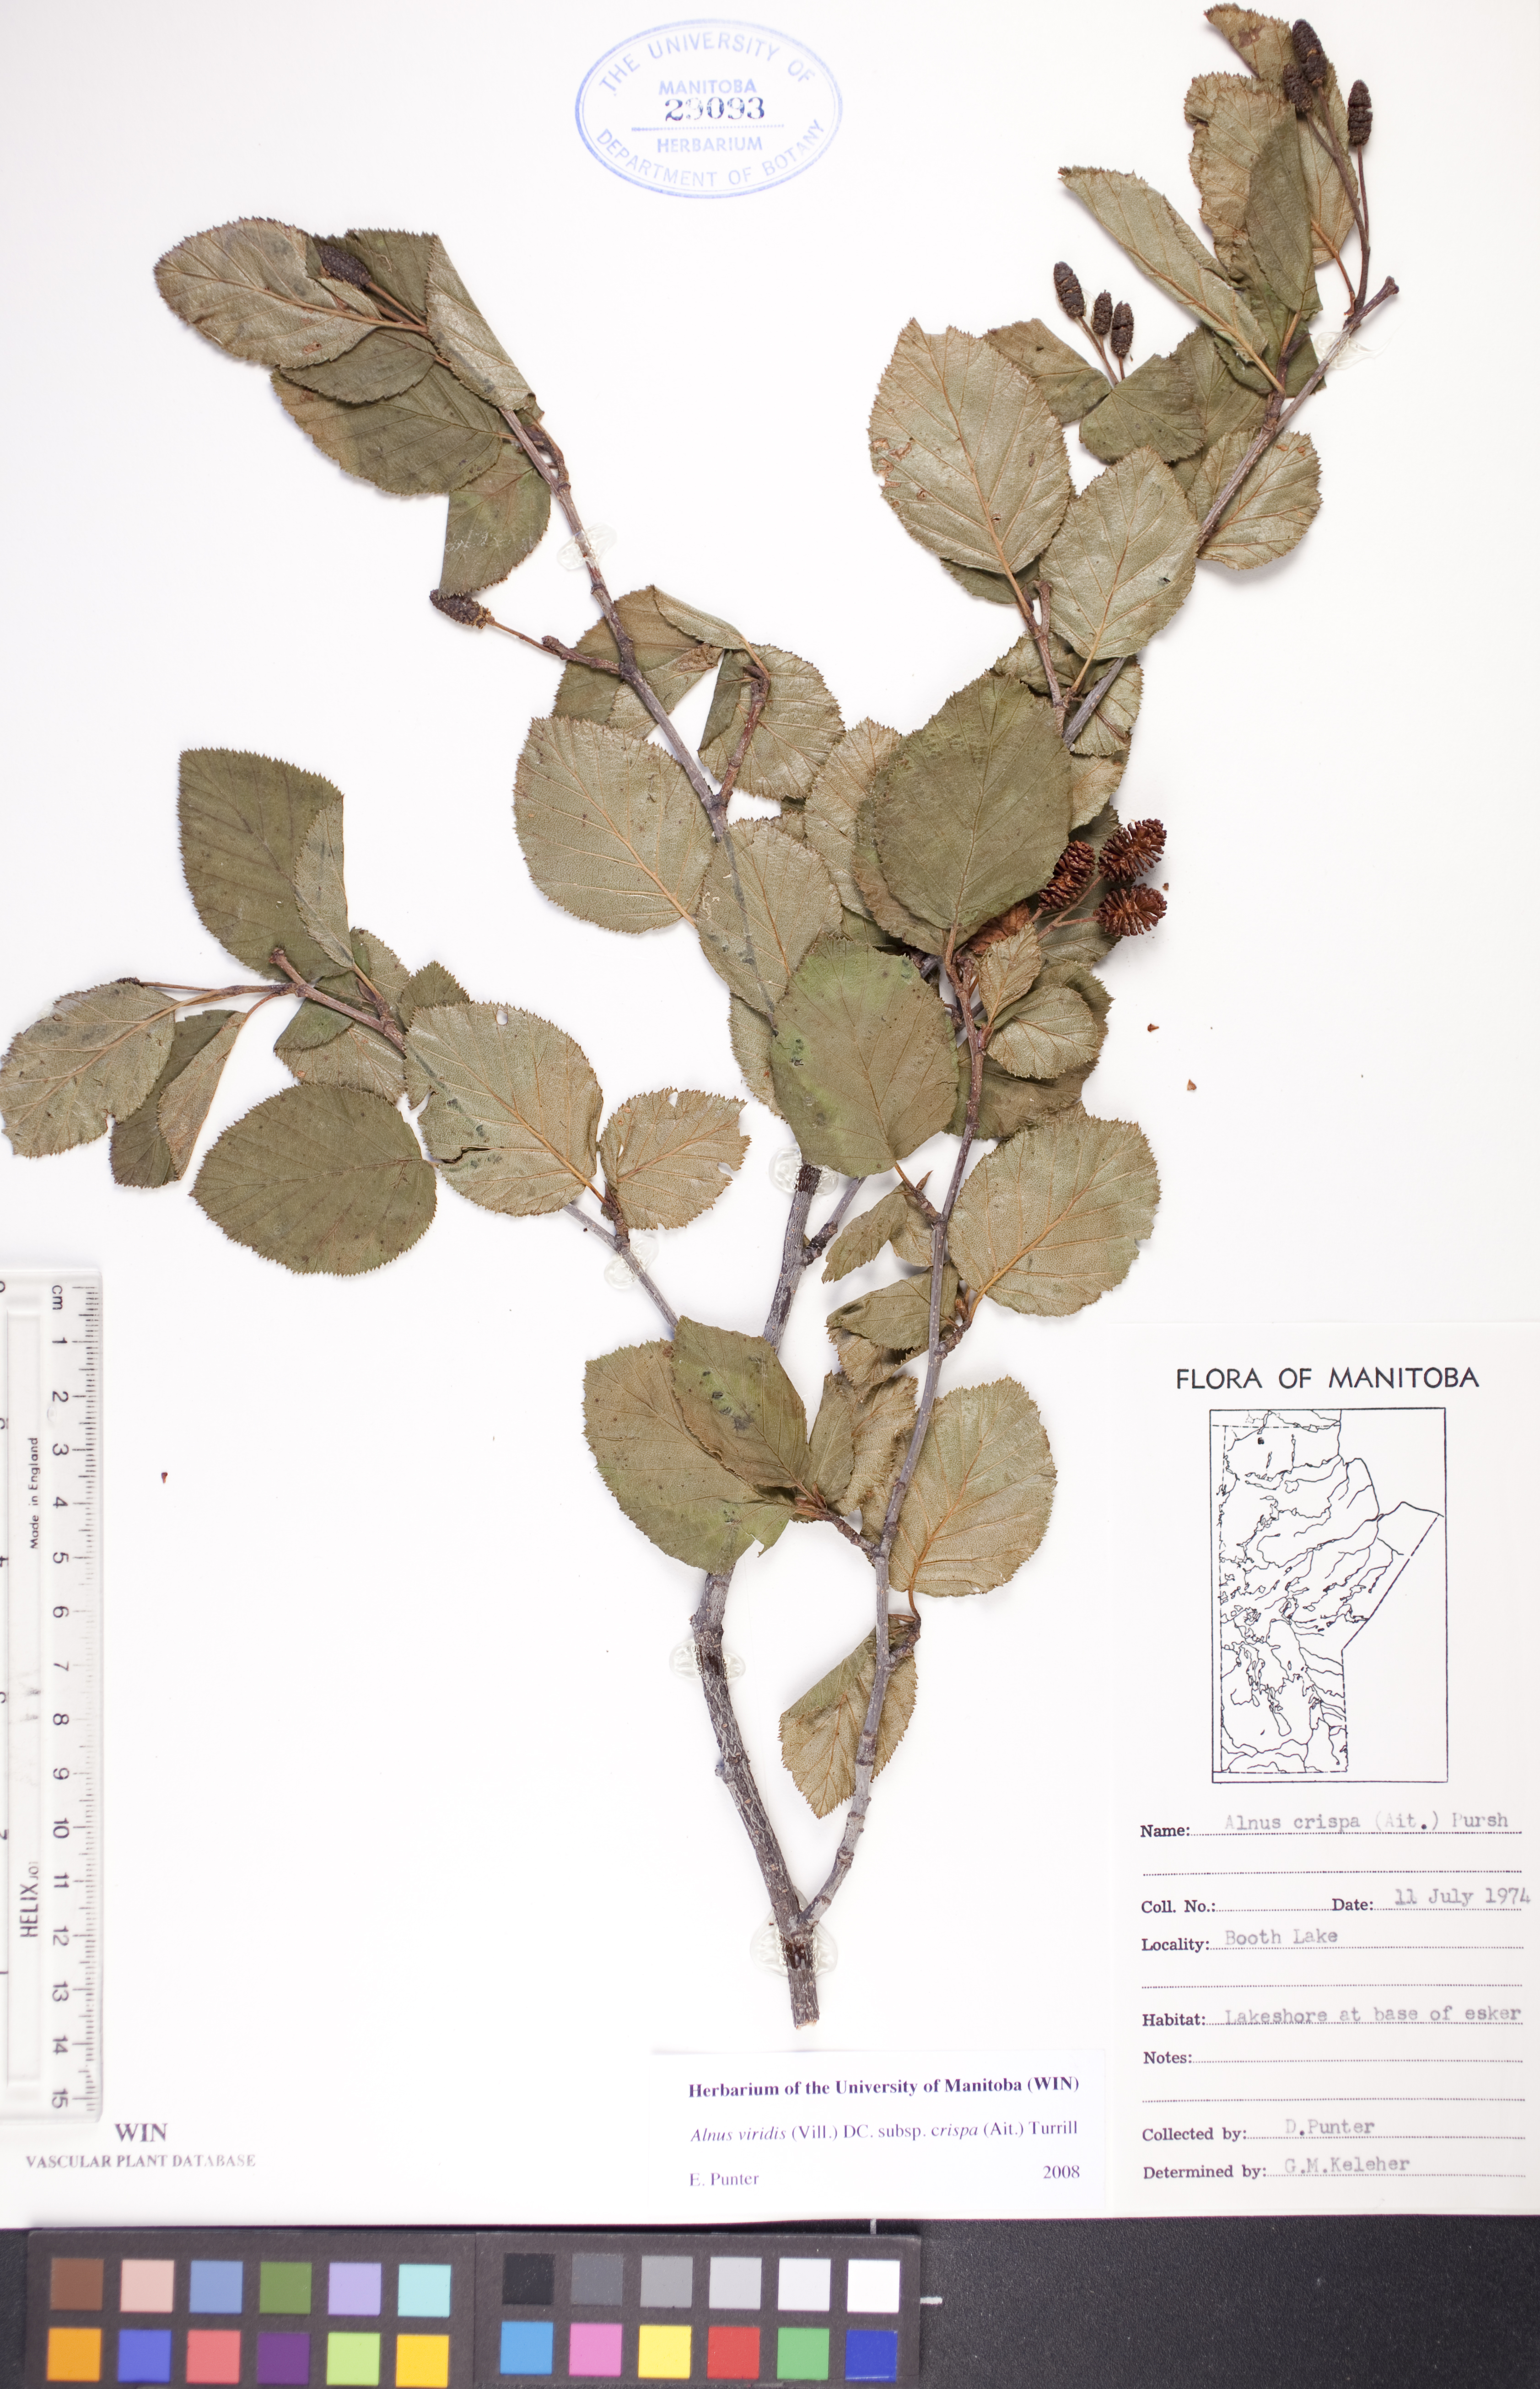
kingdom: Plantae
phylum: Tracheophyta
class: Magnoliopsida
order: Fagales
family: Betulaceae
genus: Alnus
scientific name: Alnus alnobetula
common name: Green alder
